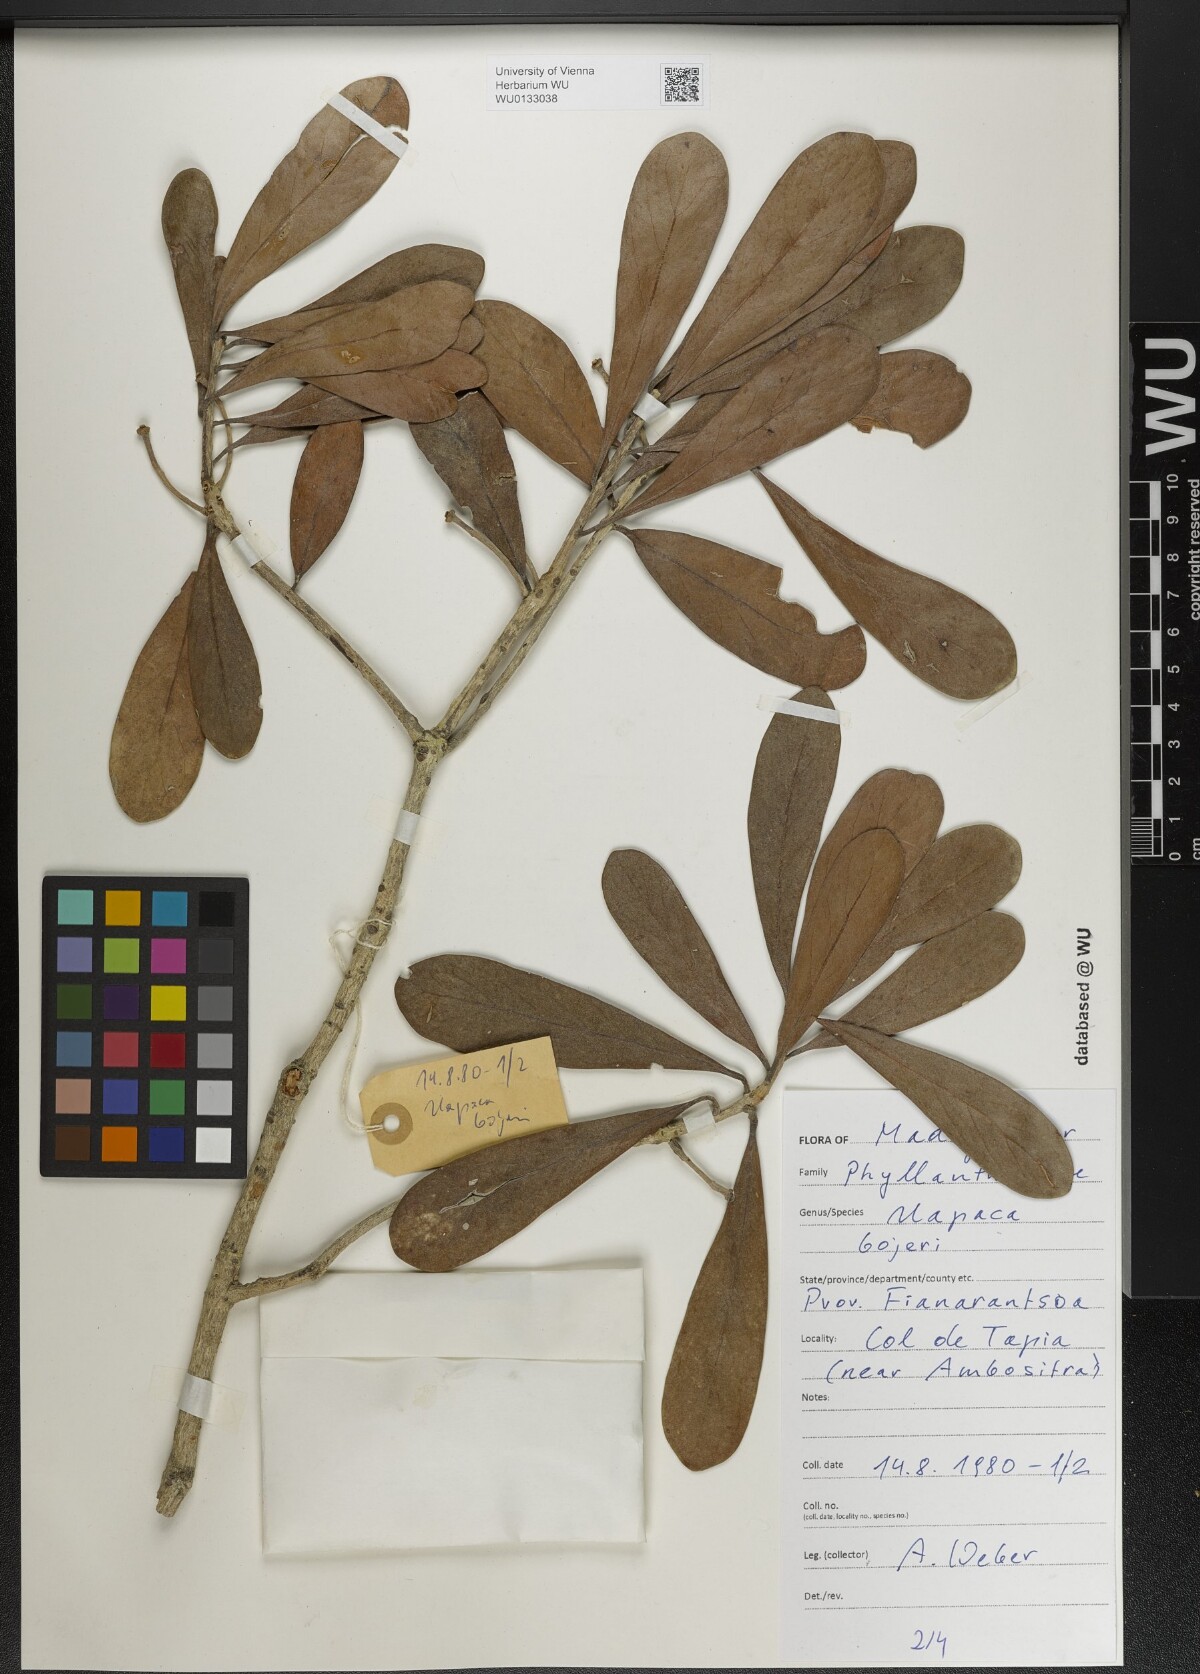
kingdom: Plantae
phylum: Tracheophyta
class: Magnoliopsida
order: Malpighiales
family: Phyllanthaceae
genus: Uapaca
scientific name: Uapaca bojeri
